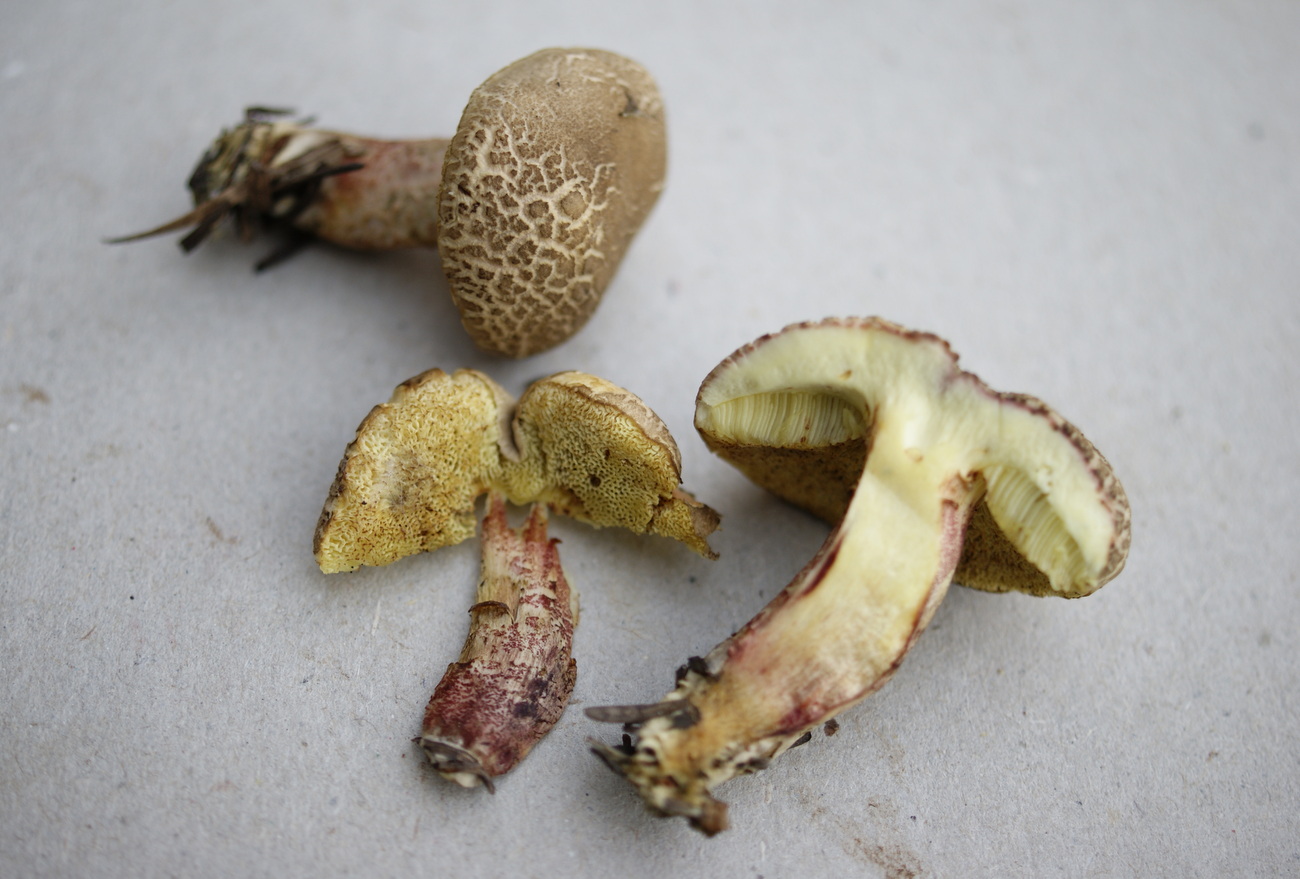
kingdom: Fungi
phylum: Basidiomycota
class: Agaricomycetes
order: Boletales
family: Boletaceae
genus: Xerocomellus
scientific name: Xerocomellus chrysenteron
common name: rødsprukken rørhat
